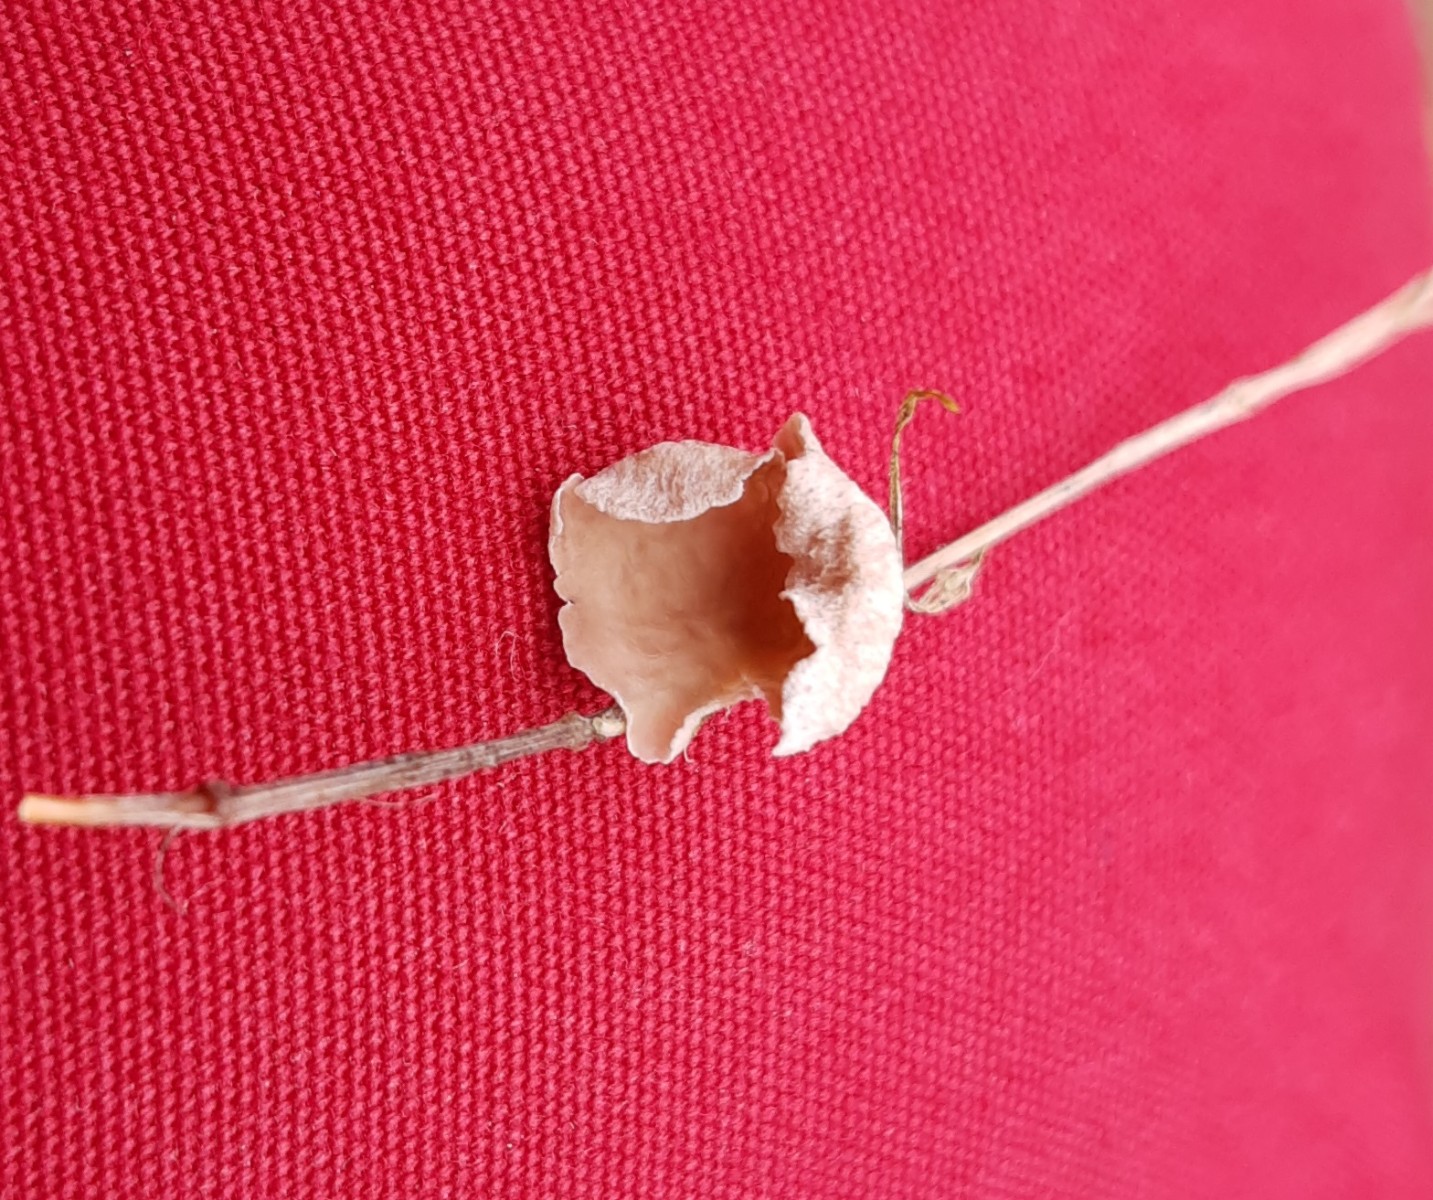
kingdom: Fungi
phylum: Basidiomycota
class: Agaricomycetes
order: Agaricales
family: Hygrophoraceae
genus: Arrhenia
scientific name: Arrhenia retiruga
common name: lille fontænehat
